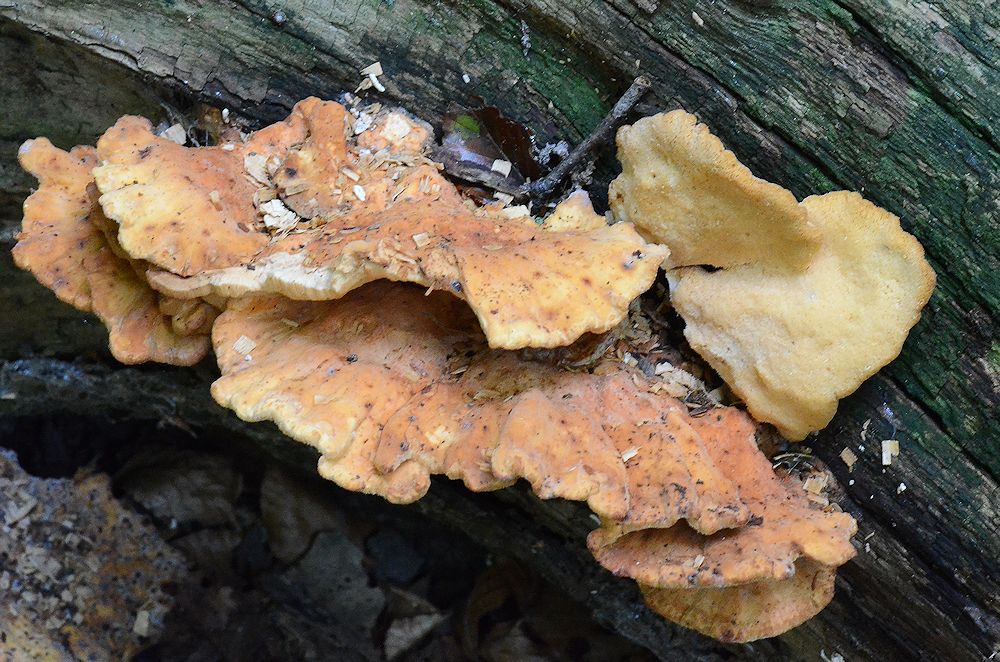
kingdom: Fungi
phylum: Basidiomycota
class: Agaricomycetes
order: Polyporales
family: Laetiporaceae
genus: Laetiporus
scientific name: Laetiporus sulphureus
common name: svovlporesvamp
